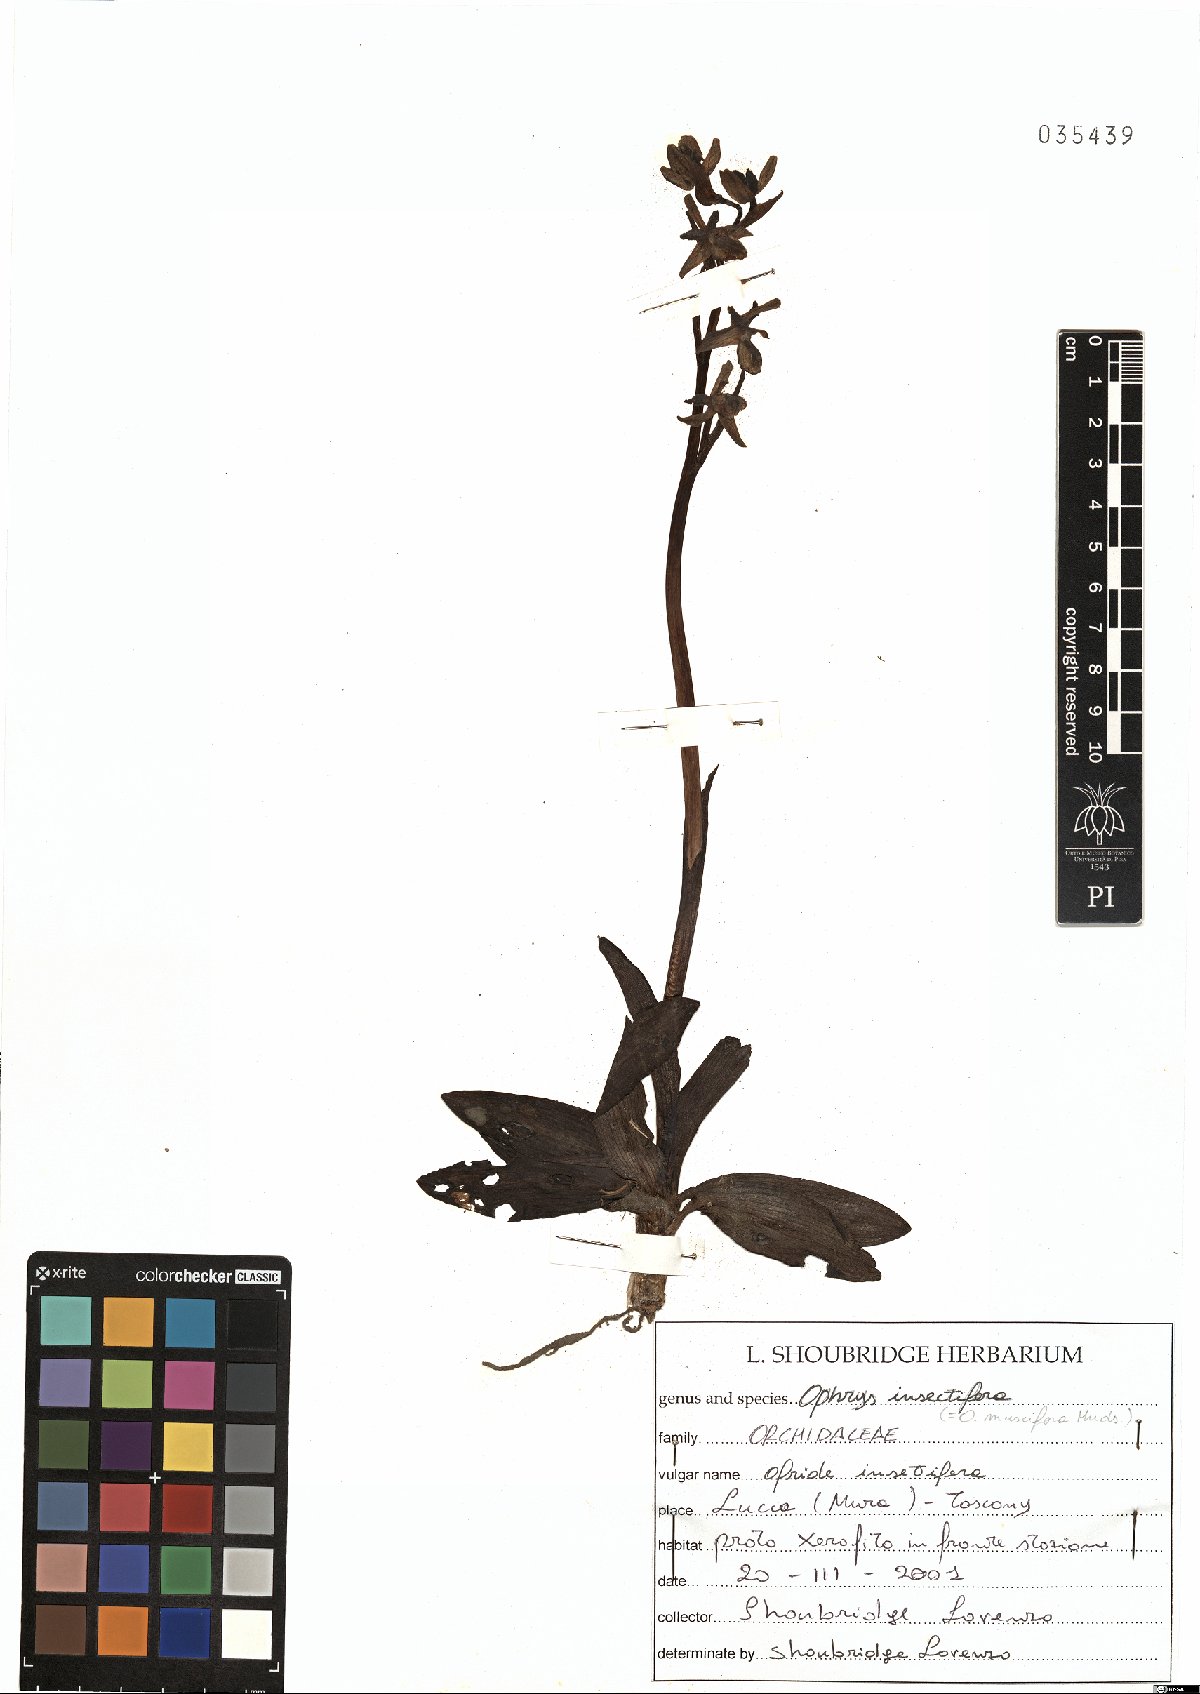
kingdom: Plantae
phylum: Tracheophyta
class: Liliopsida
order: Asparagales
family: Orchidaceae
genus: Ophrys
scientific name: Ophrys insectifera
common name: Fly orchid
